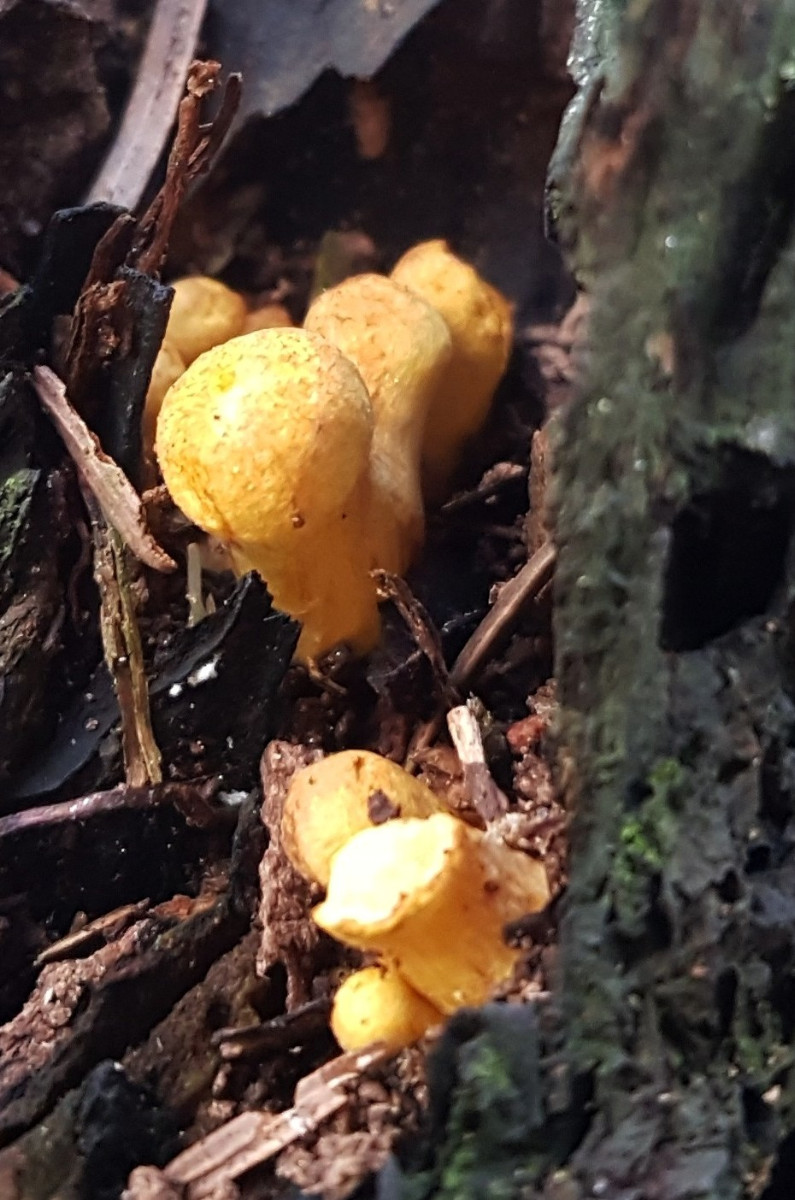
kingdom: Fungi
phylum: Basidiomycota
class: Agaricomycetes
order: Agaricales
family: Hymenogastraceae
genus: Gymnopilus
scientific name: Gymnopilus
